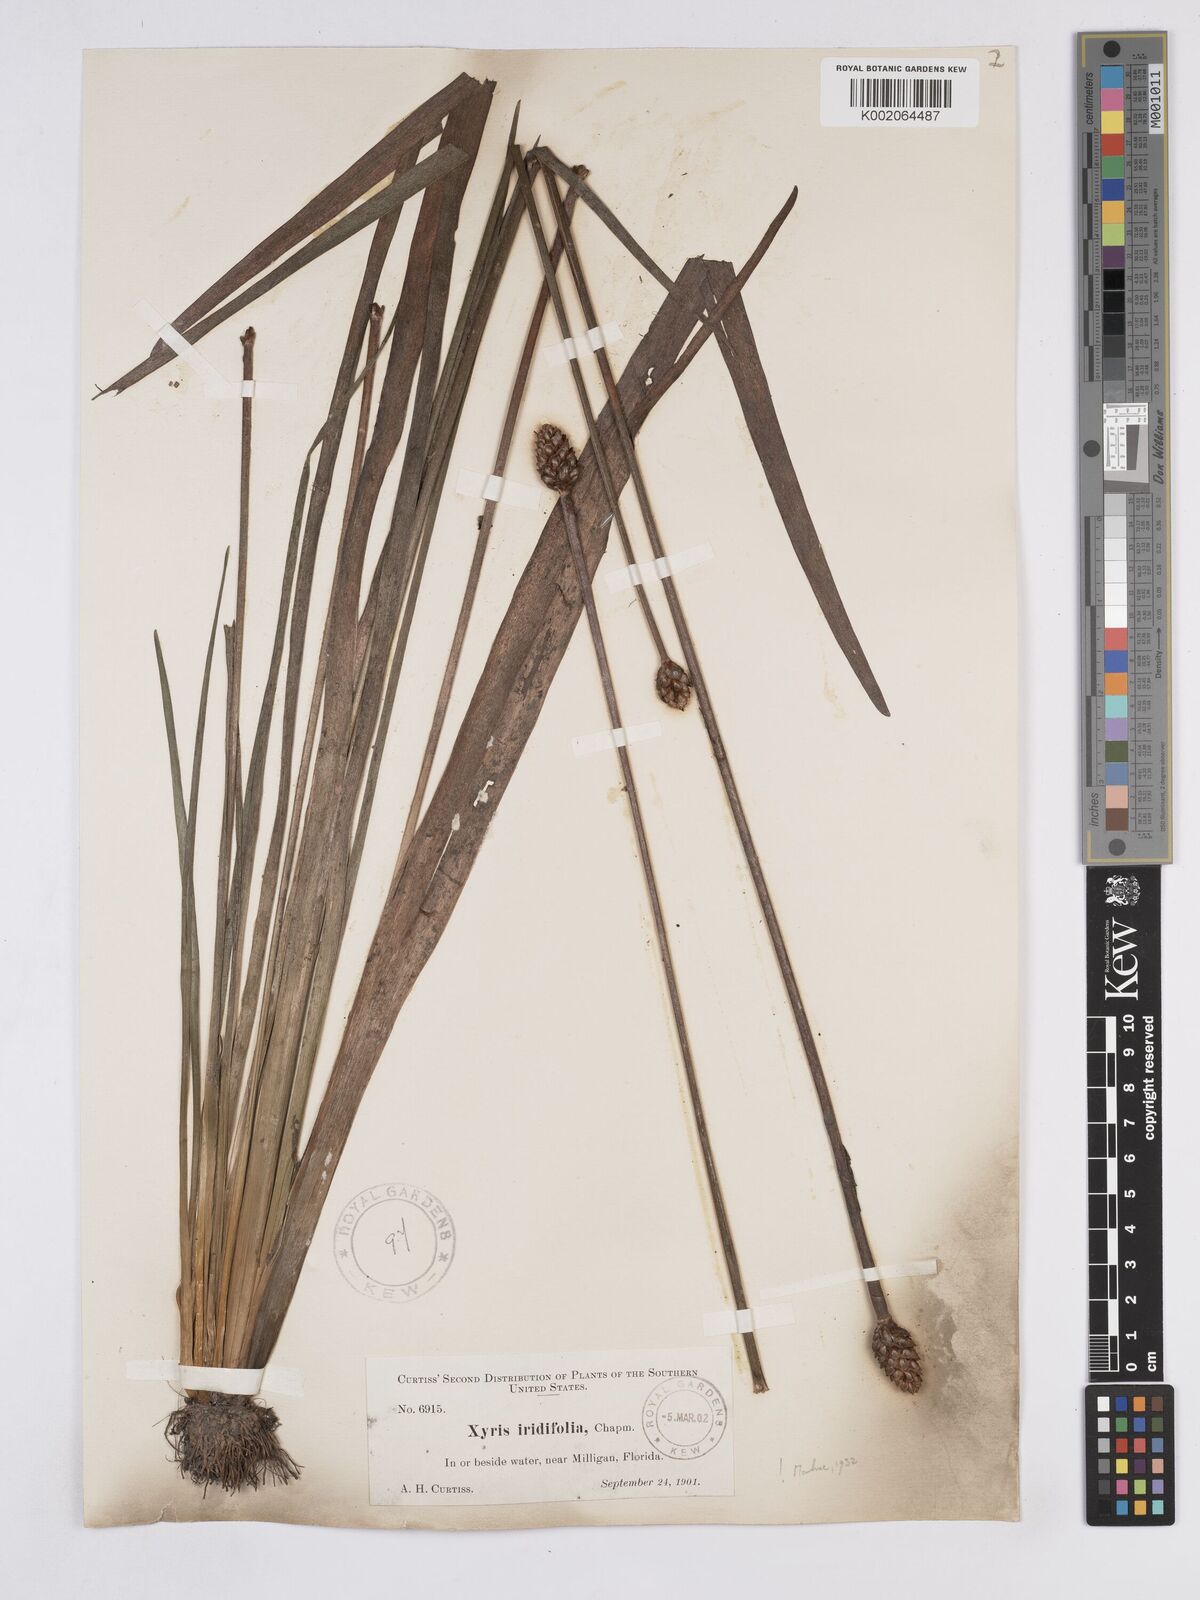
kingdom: Plantae
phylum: Tracheophyta
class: Liliopsida
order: Poales
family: Xyridaceae
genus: Xyris
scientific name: Xyris laxifolia
